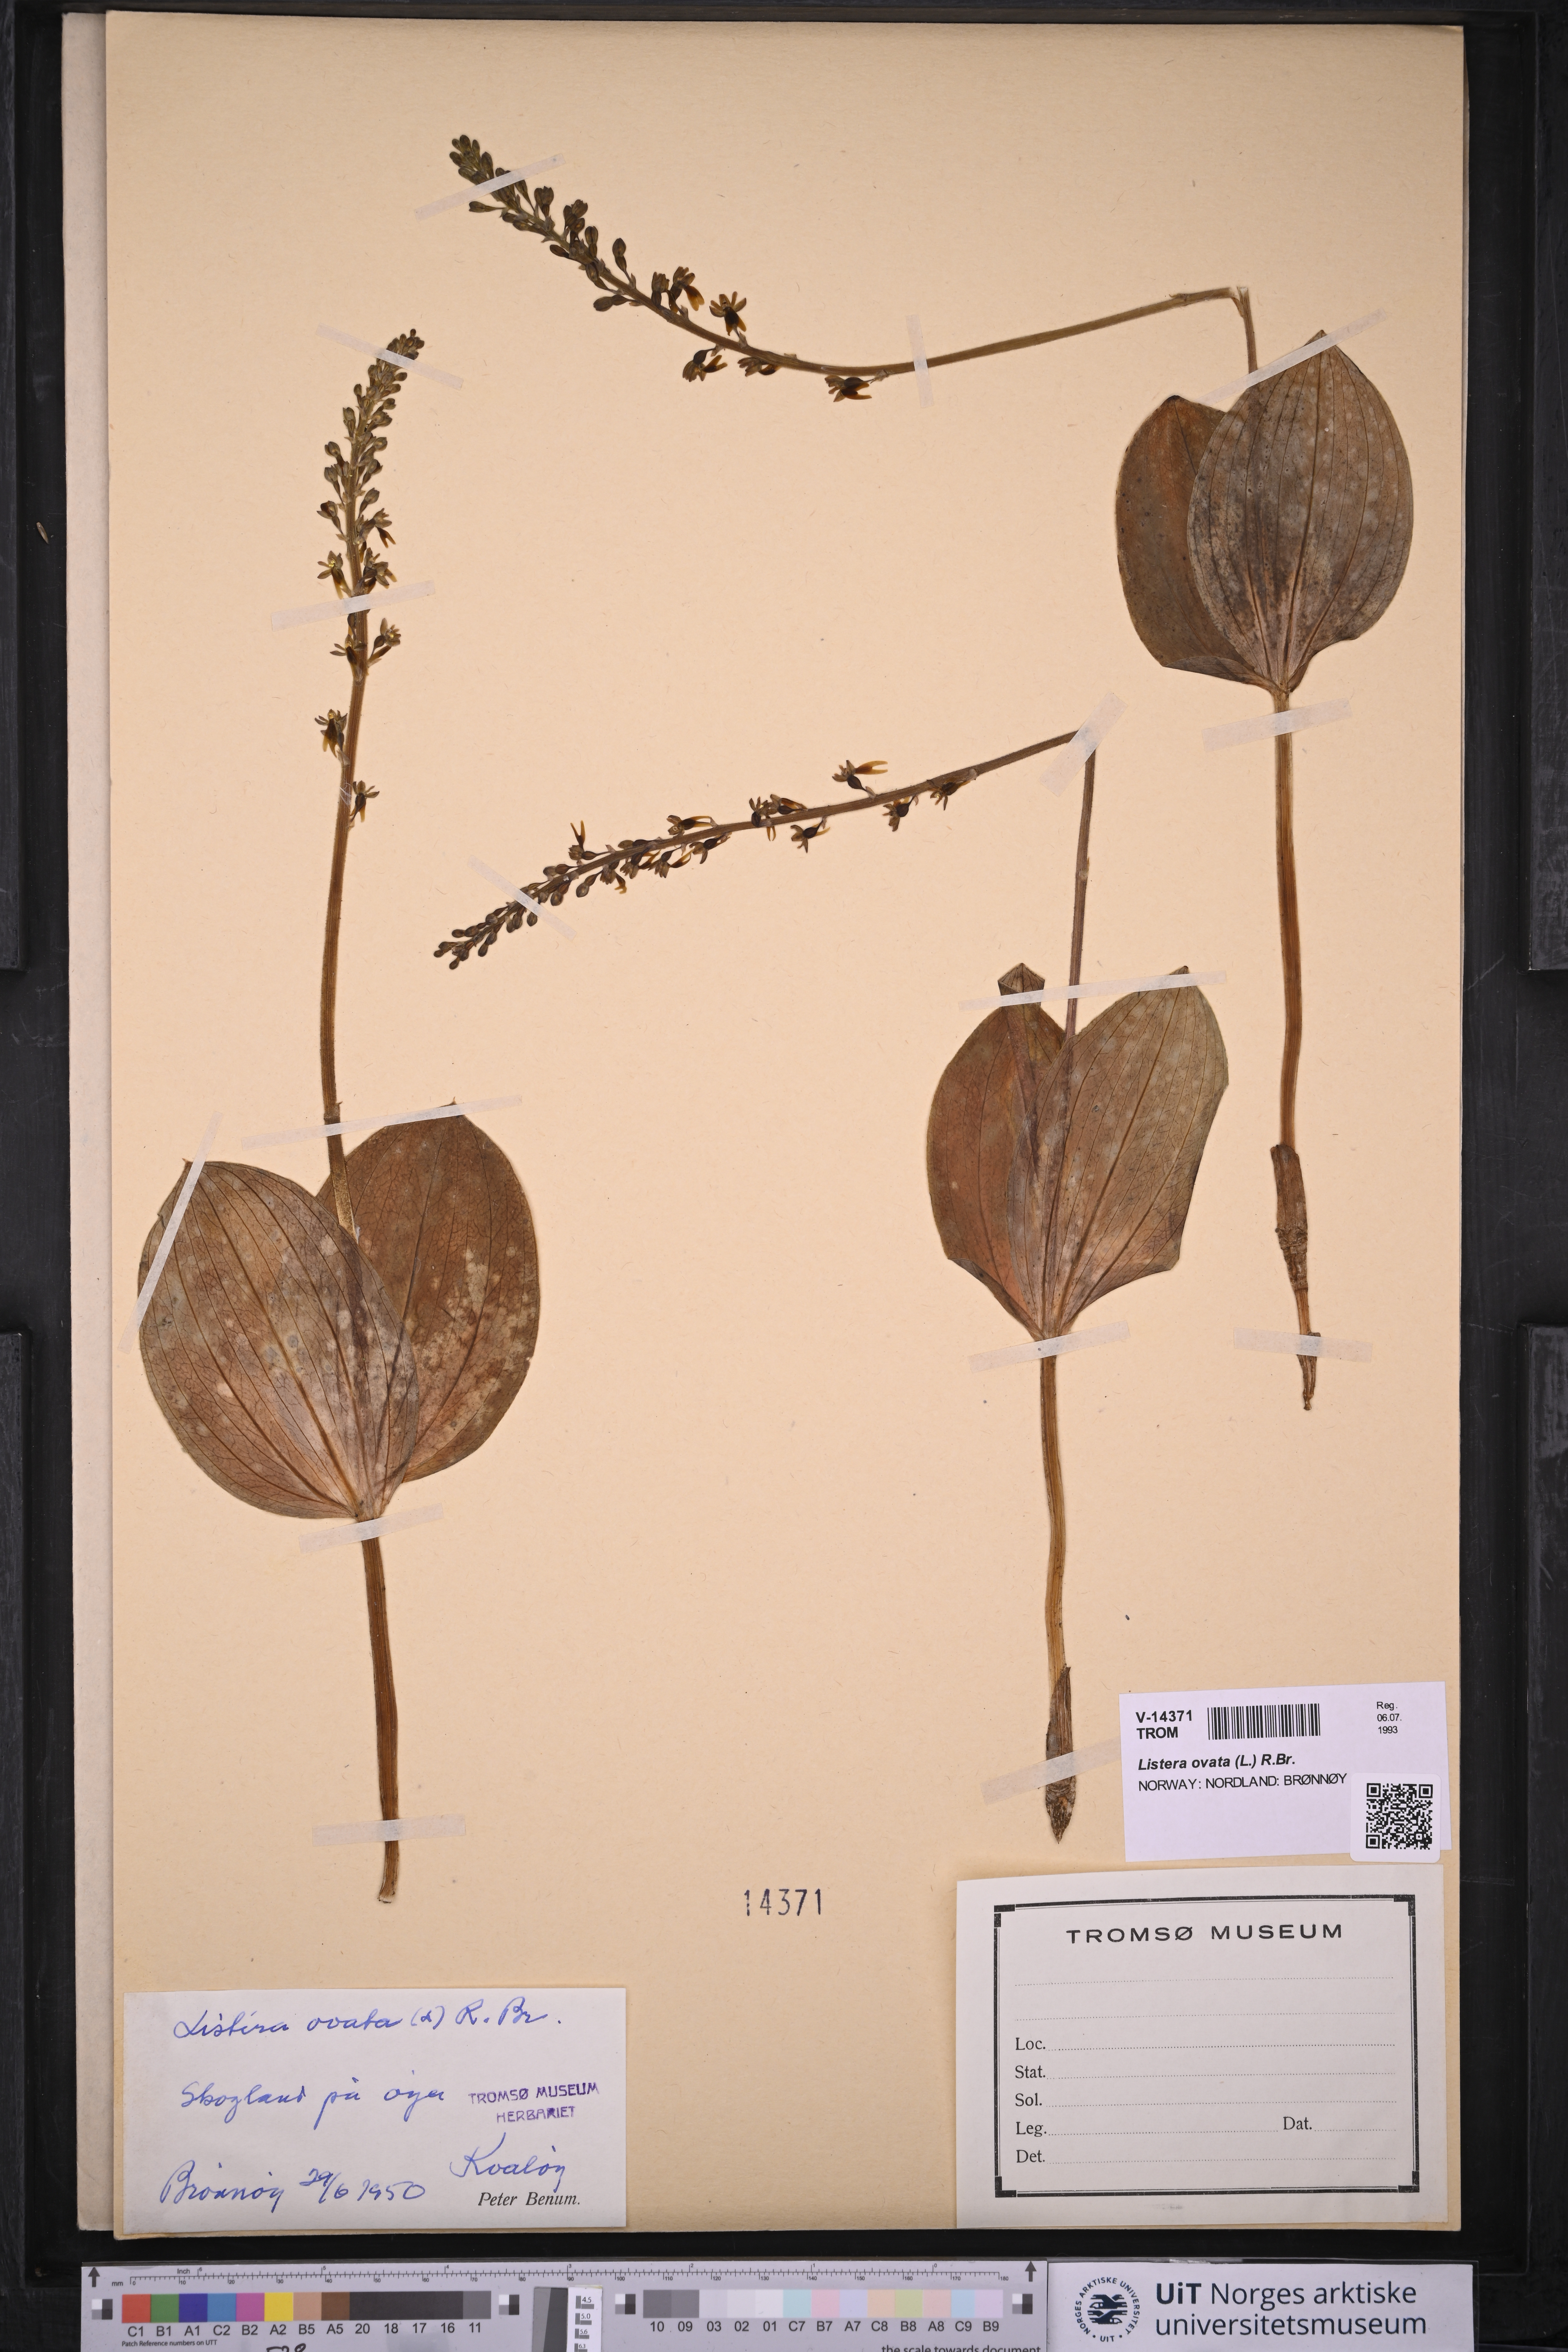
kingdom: Plantae
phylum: Tracheophyta
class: Liliopsida
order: Asparagales
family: Orchidaceae
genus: Neottia
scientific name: Neottia ovata
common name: Common twayblade
